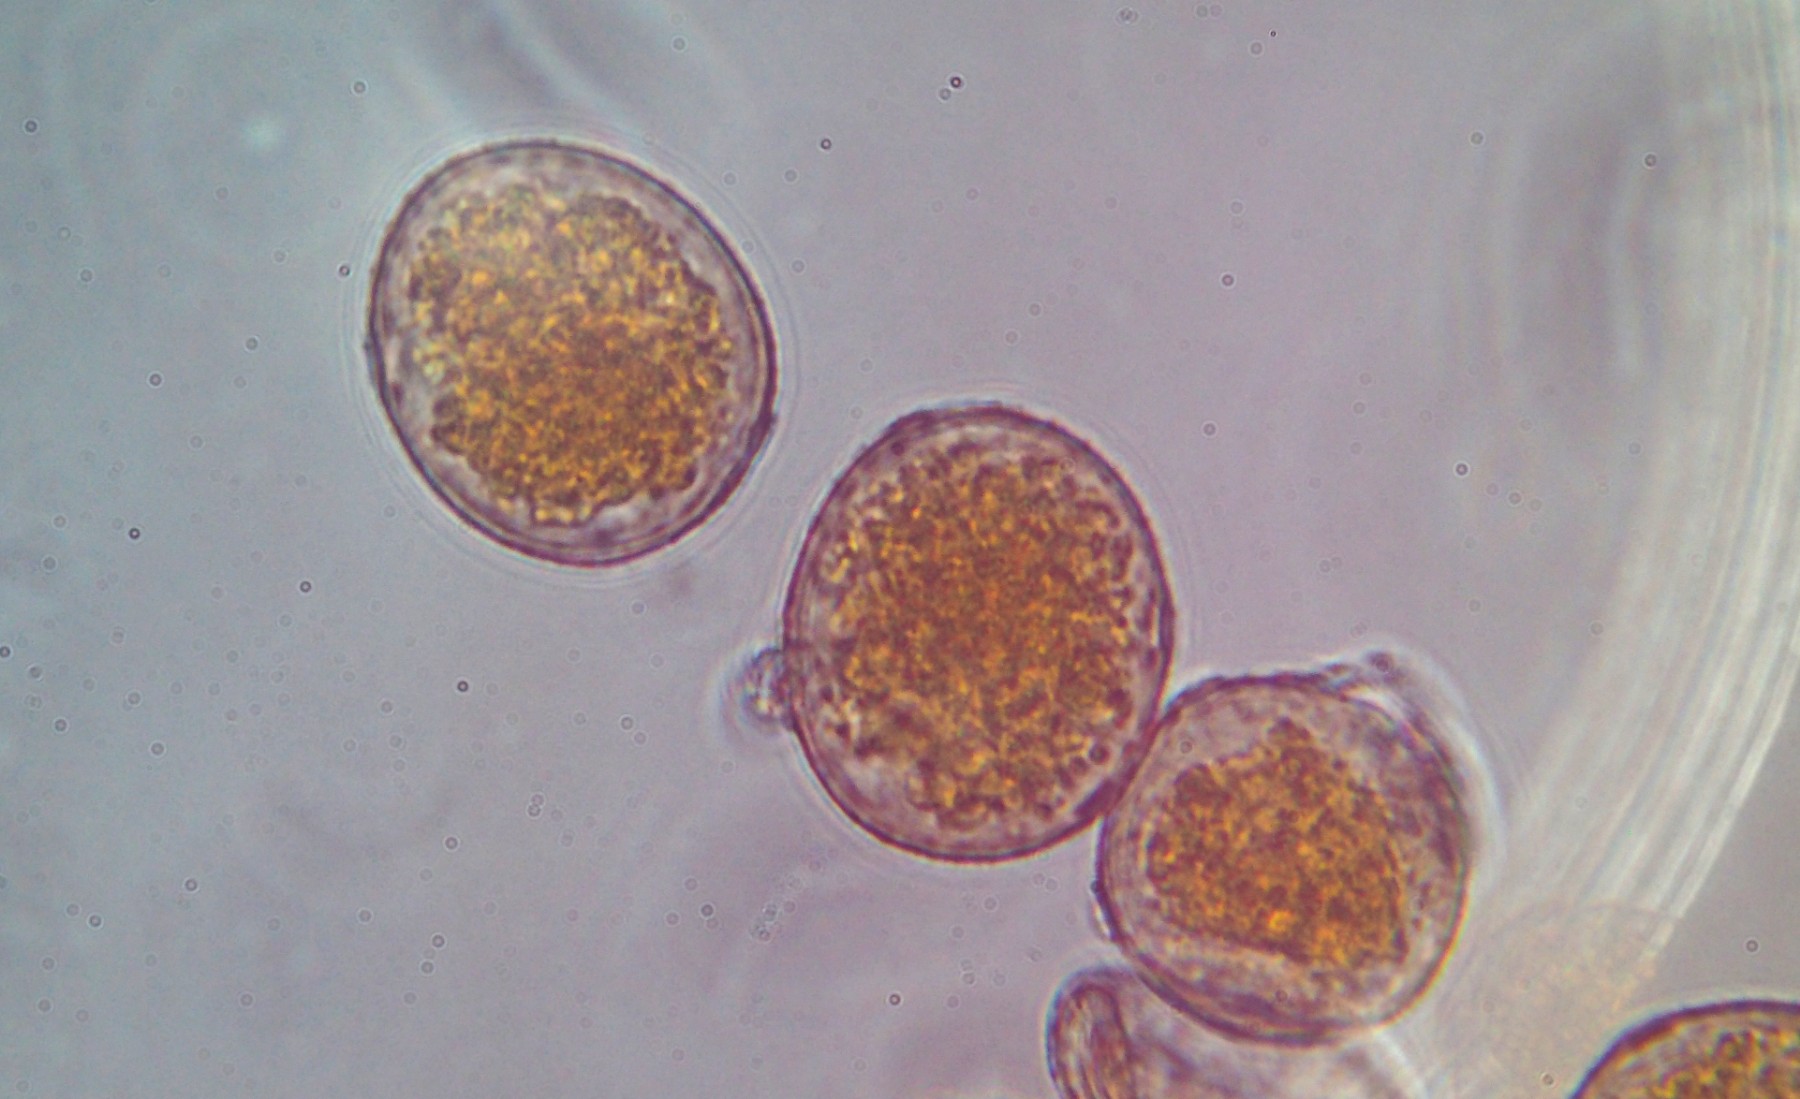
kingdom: Fungi
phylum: Basidiomycota
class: Pucciniomycetes
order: Pucciniales
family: Pucciniaceae
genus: Puccinia
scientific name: Puccinia graminis
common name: Black stem rust
